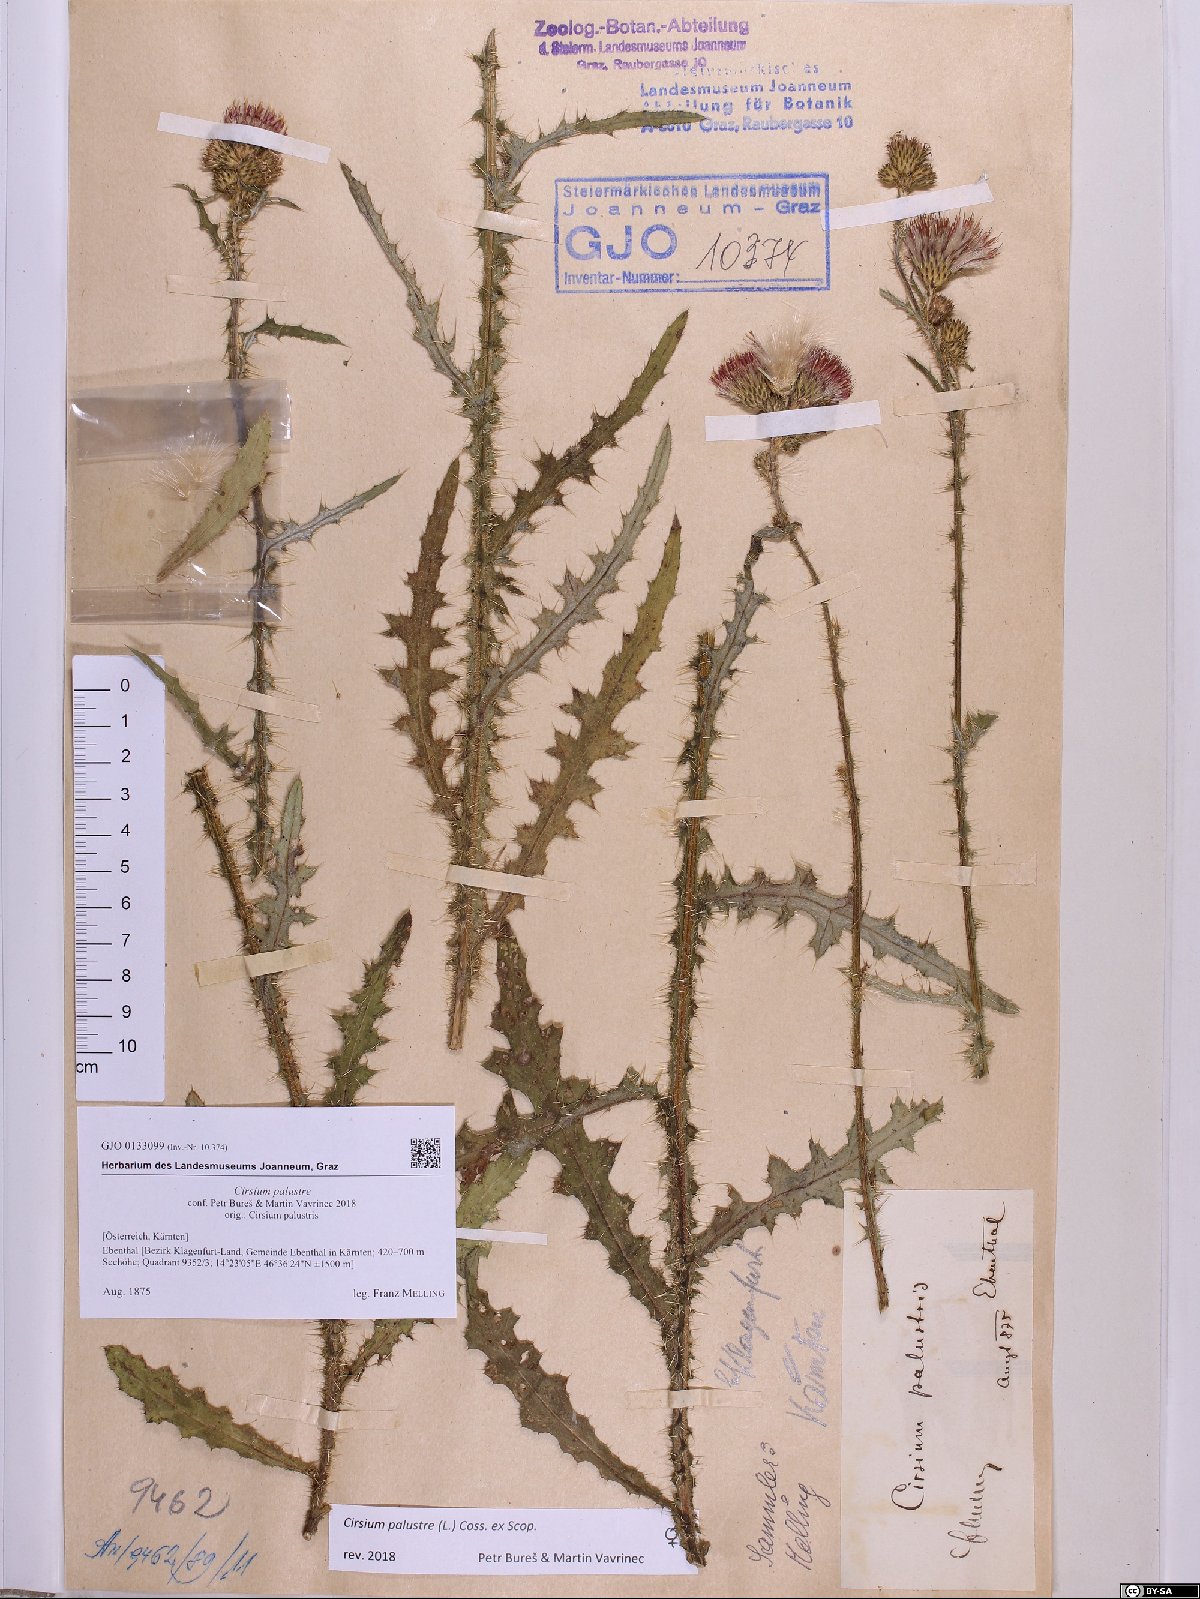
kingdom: Plantae
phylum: Tracheophyta
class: Magnoliopsida
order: Asterales
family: Asteraceae
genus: Cirsium
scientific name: Cirsium palustre
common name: Marsh thistle
